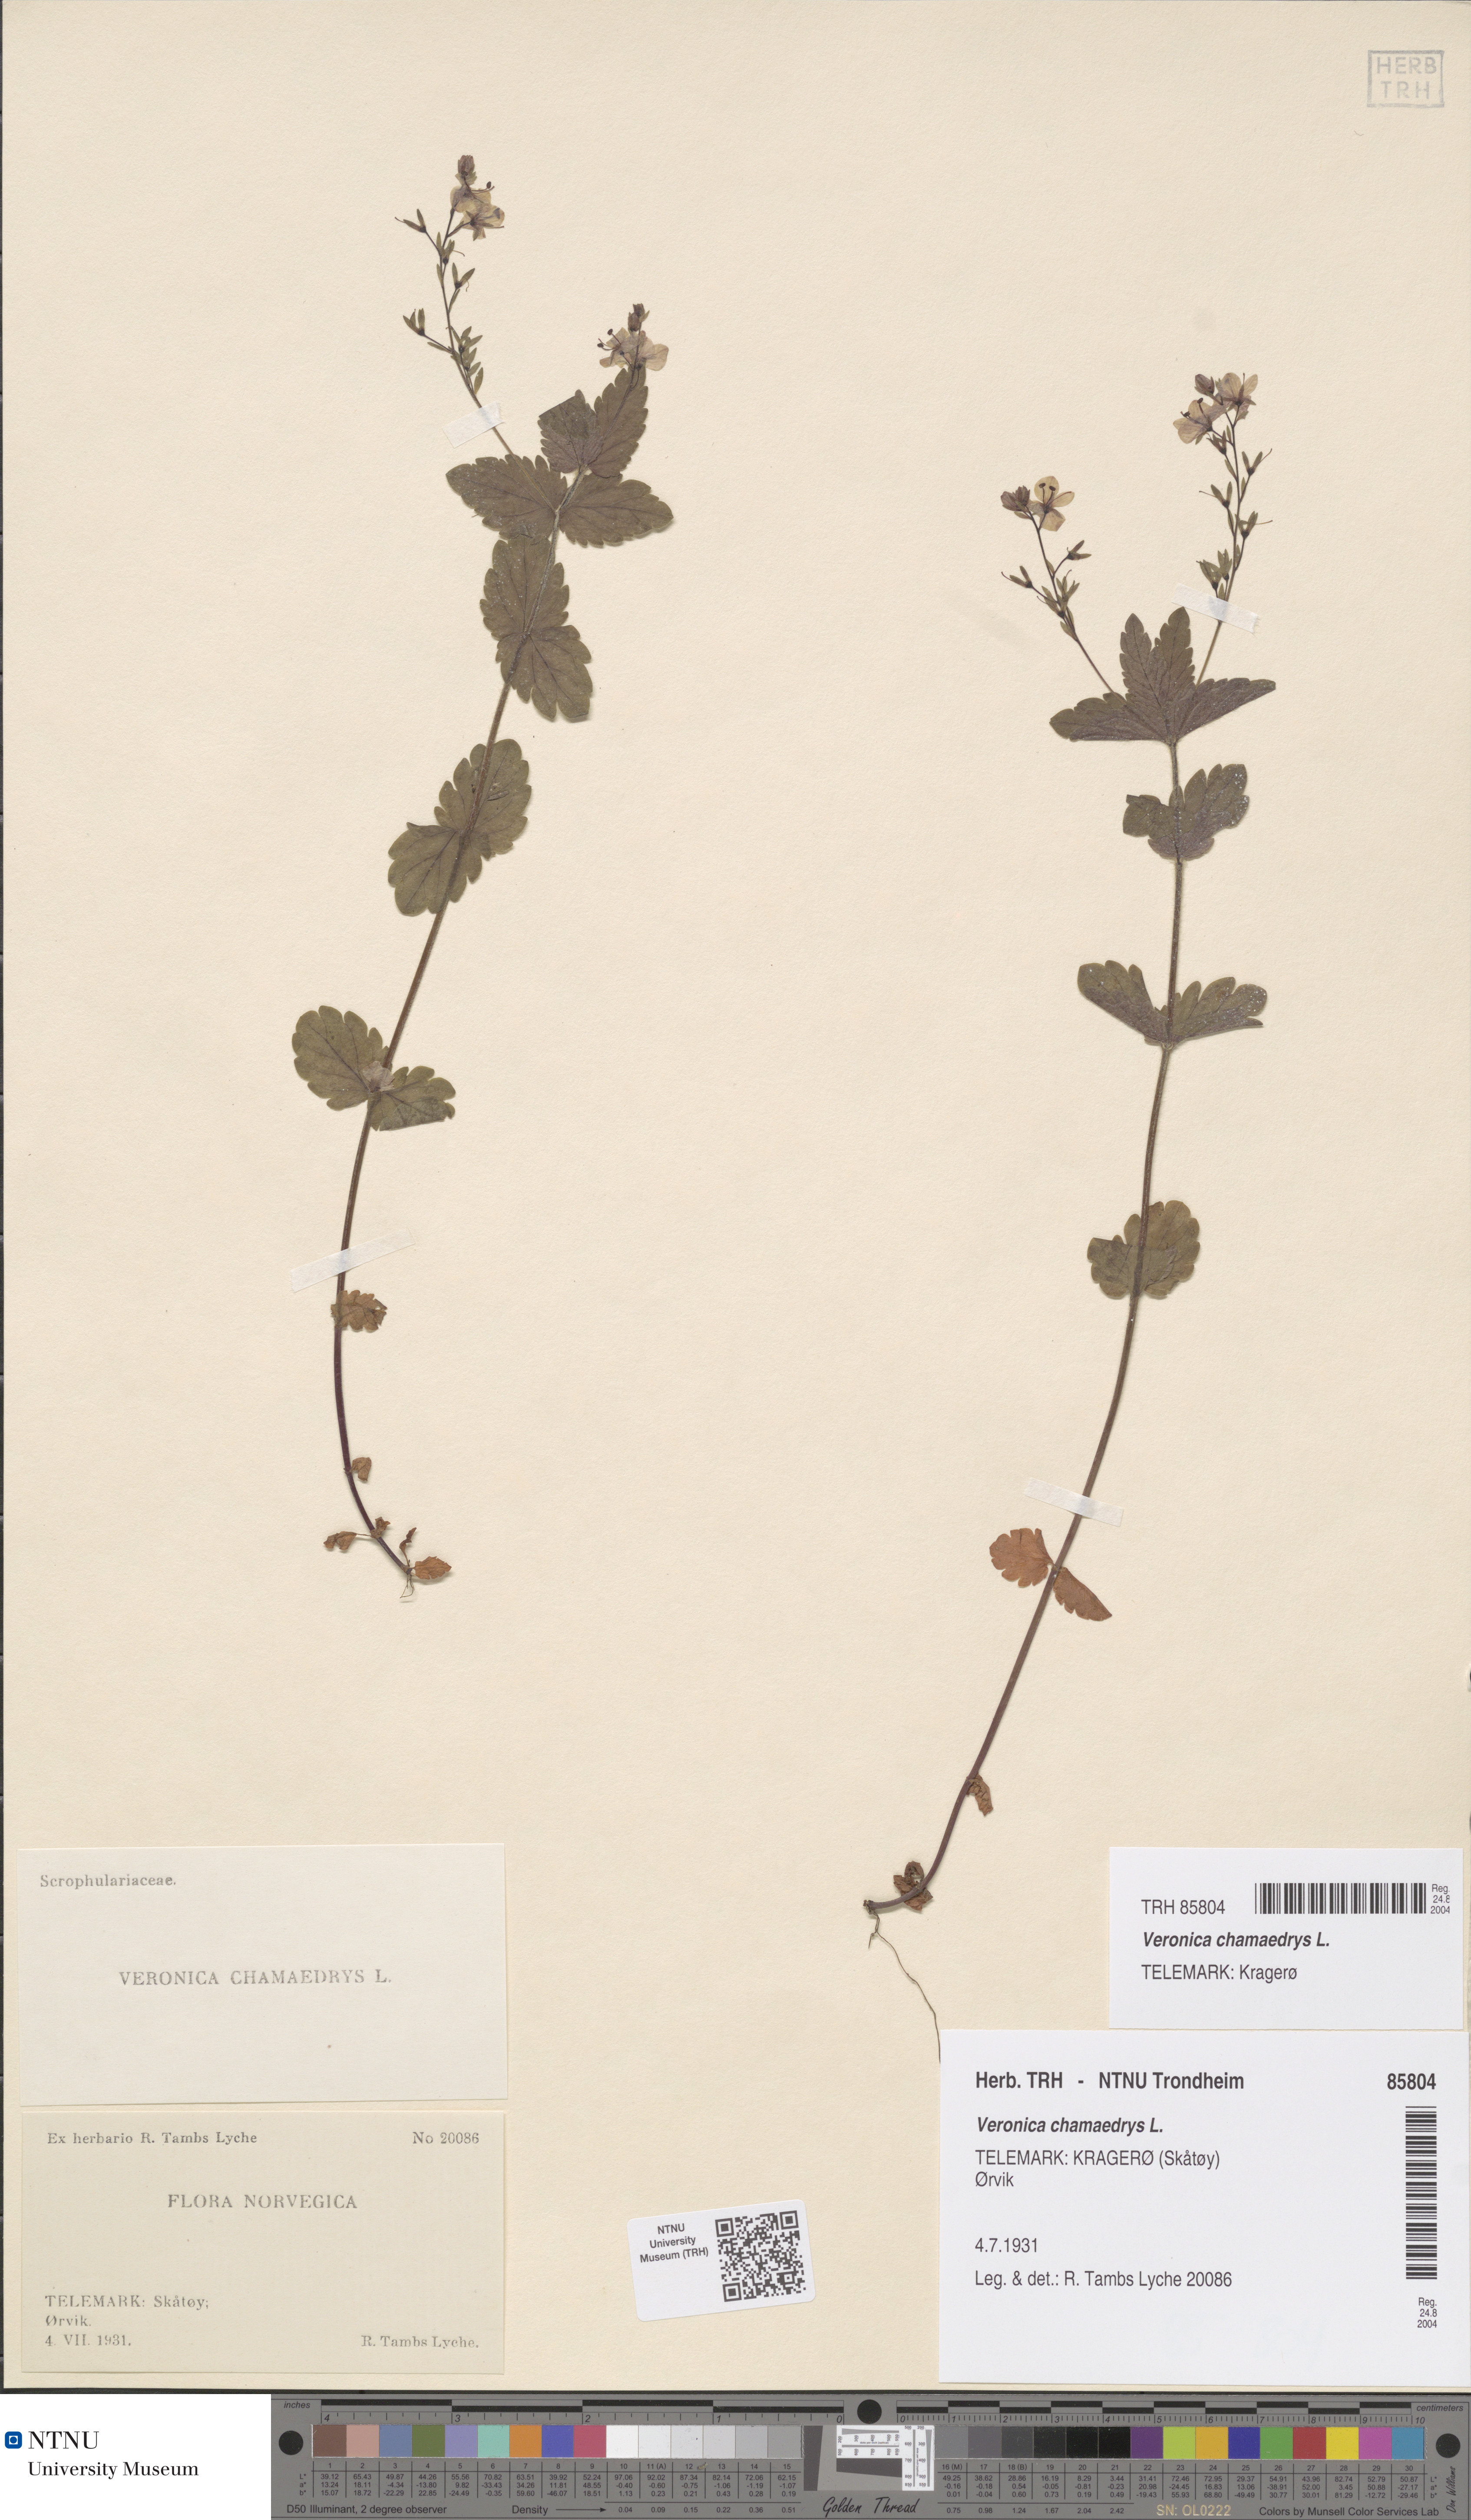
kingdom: Plantae
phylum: Tracheophyta
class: Magnoliopsida
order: Lamiales
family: Plantaginaceae
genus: Veronica
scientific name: Veronica chamaedrys
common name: Germander speedwell
